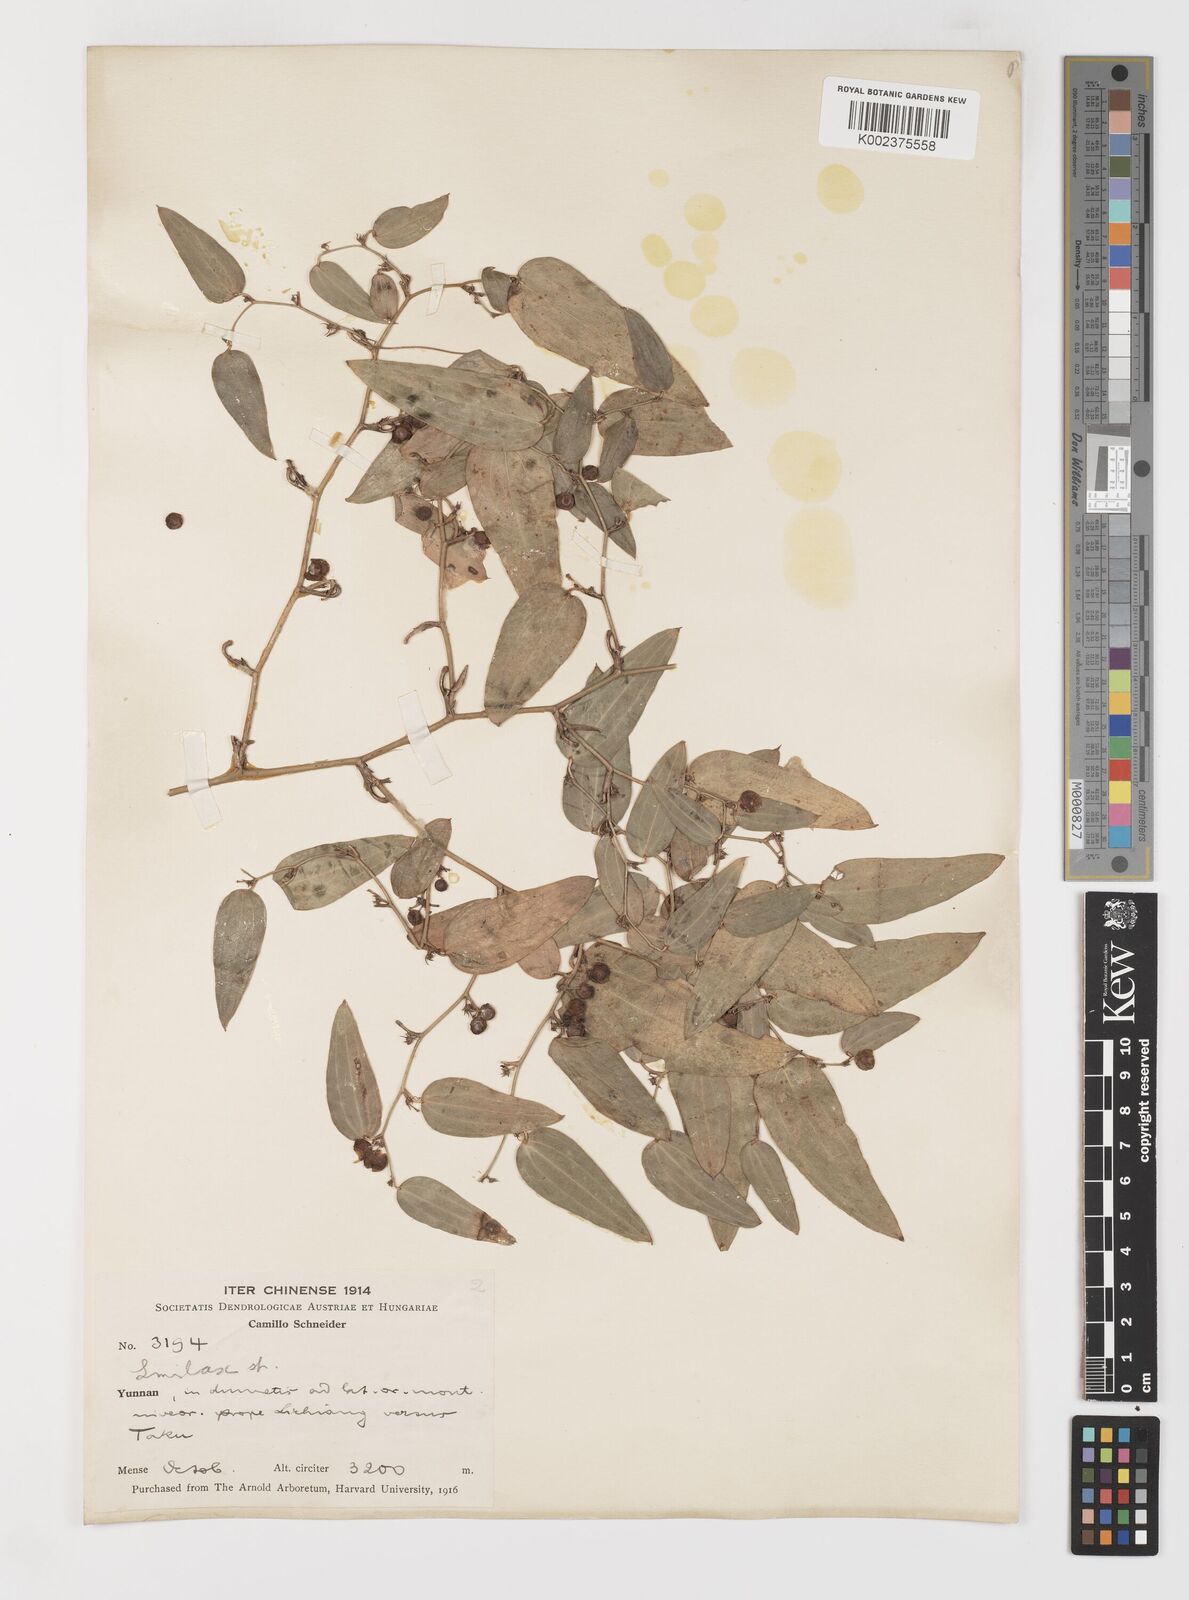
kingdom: Plantae
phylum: Tracheophyta
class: Liliopsida
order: Liliales
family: Smilacaceae
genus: Smilax
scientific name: Smilax lanceifolia
